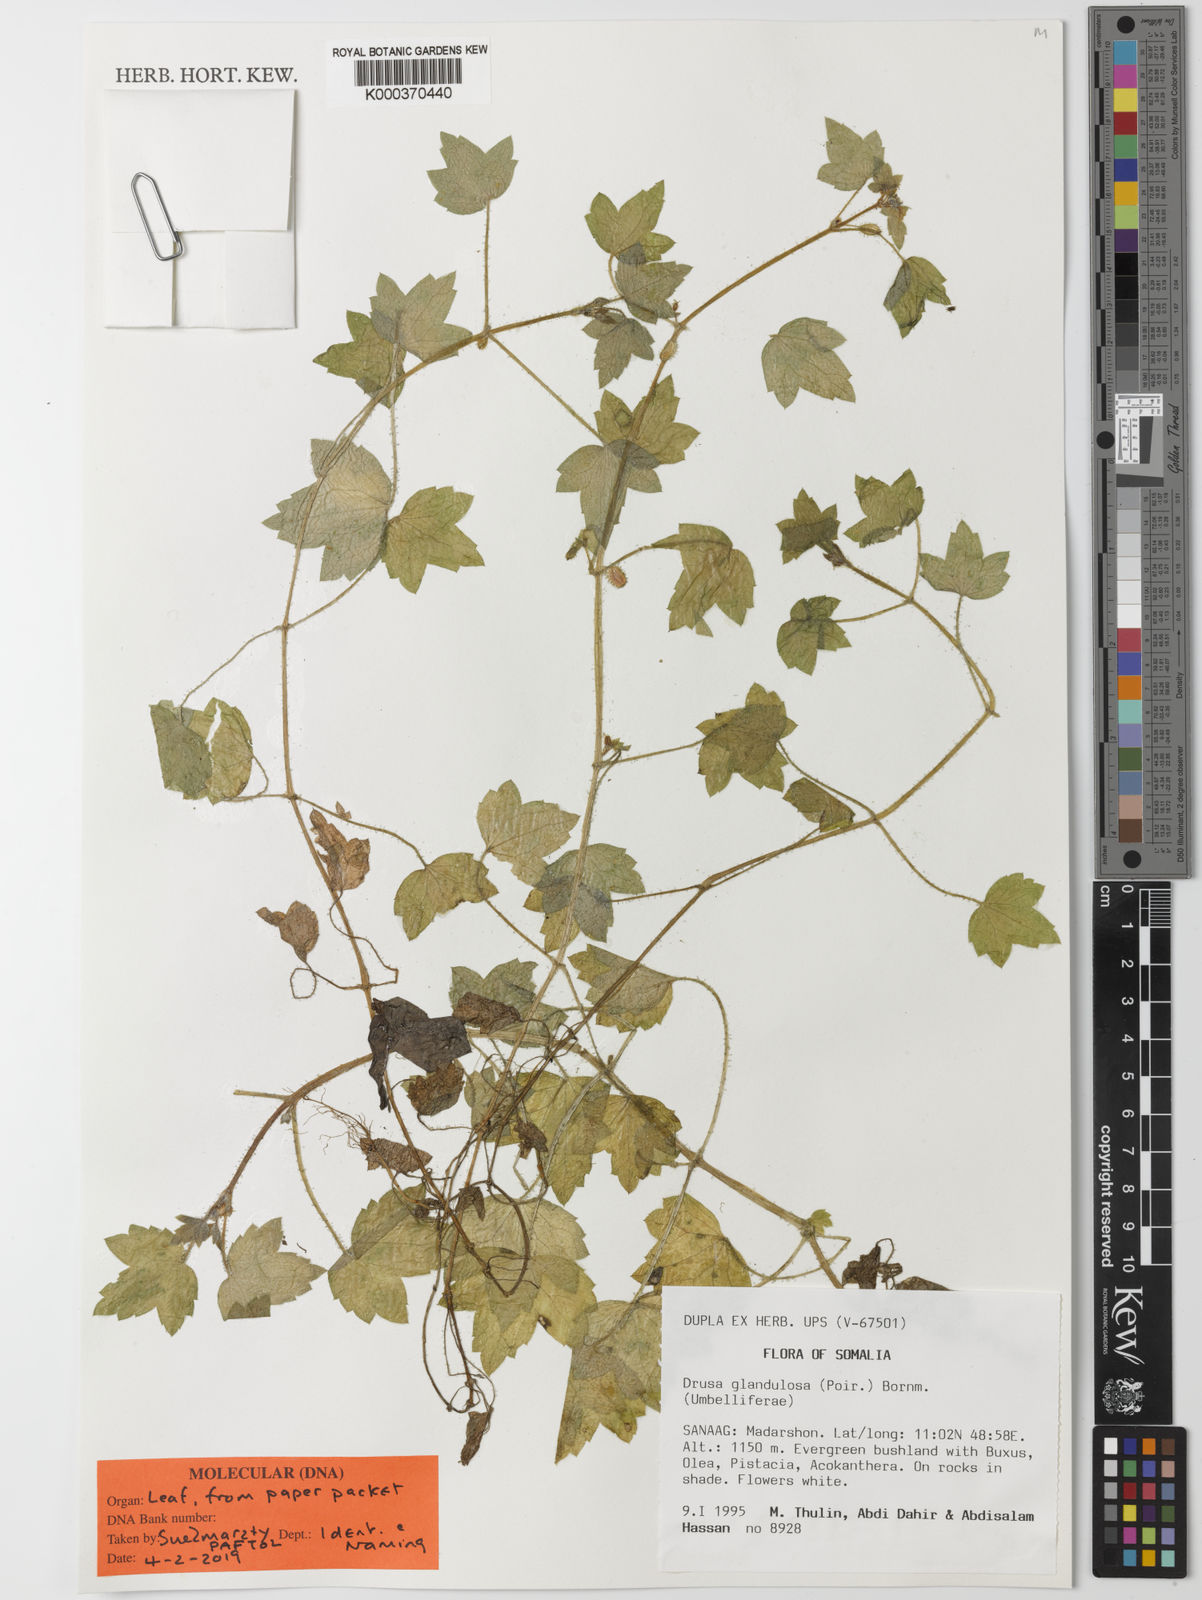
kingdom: Plantae
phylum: Tracheophyta
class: Magnoliopsida
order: Apiales
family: Apiaceae
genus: Drusa
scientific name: Drusa glandulosa
